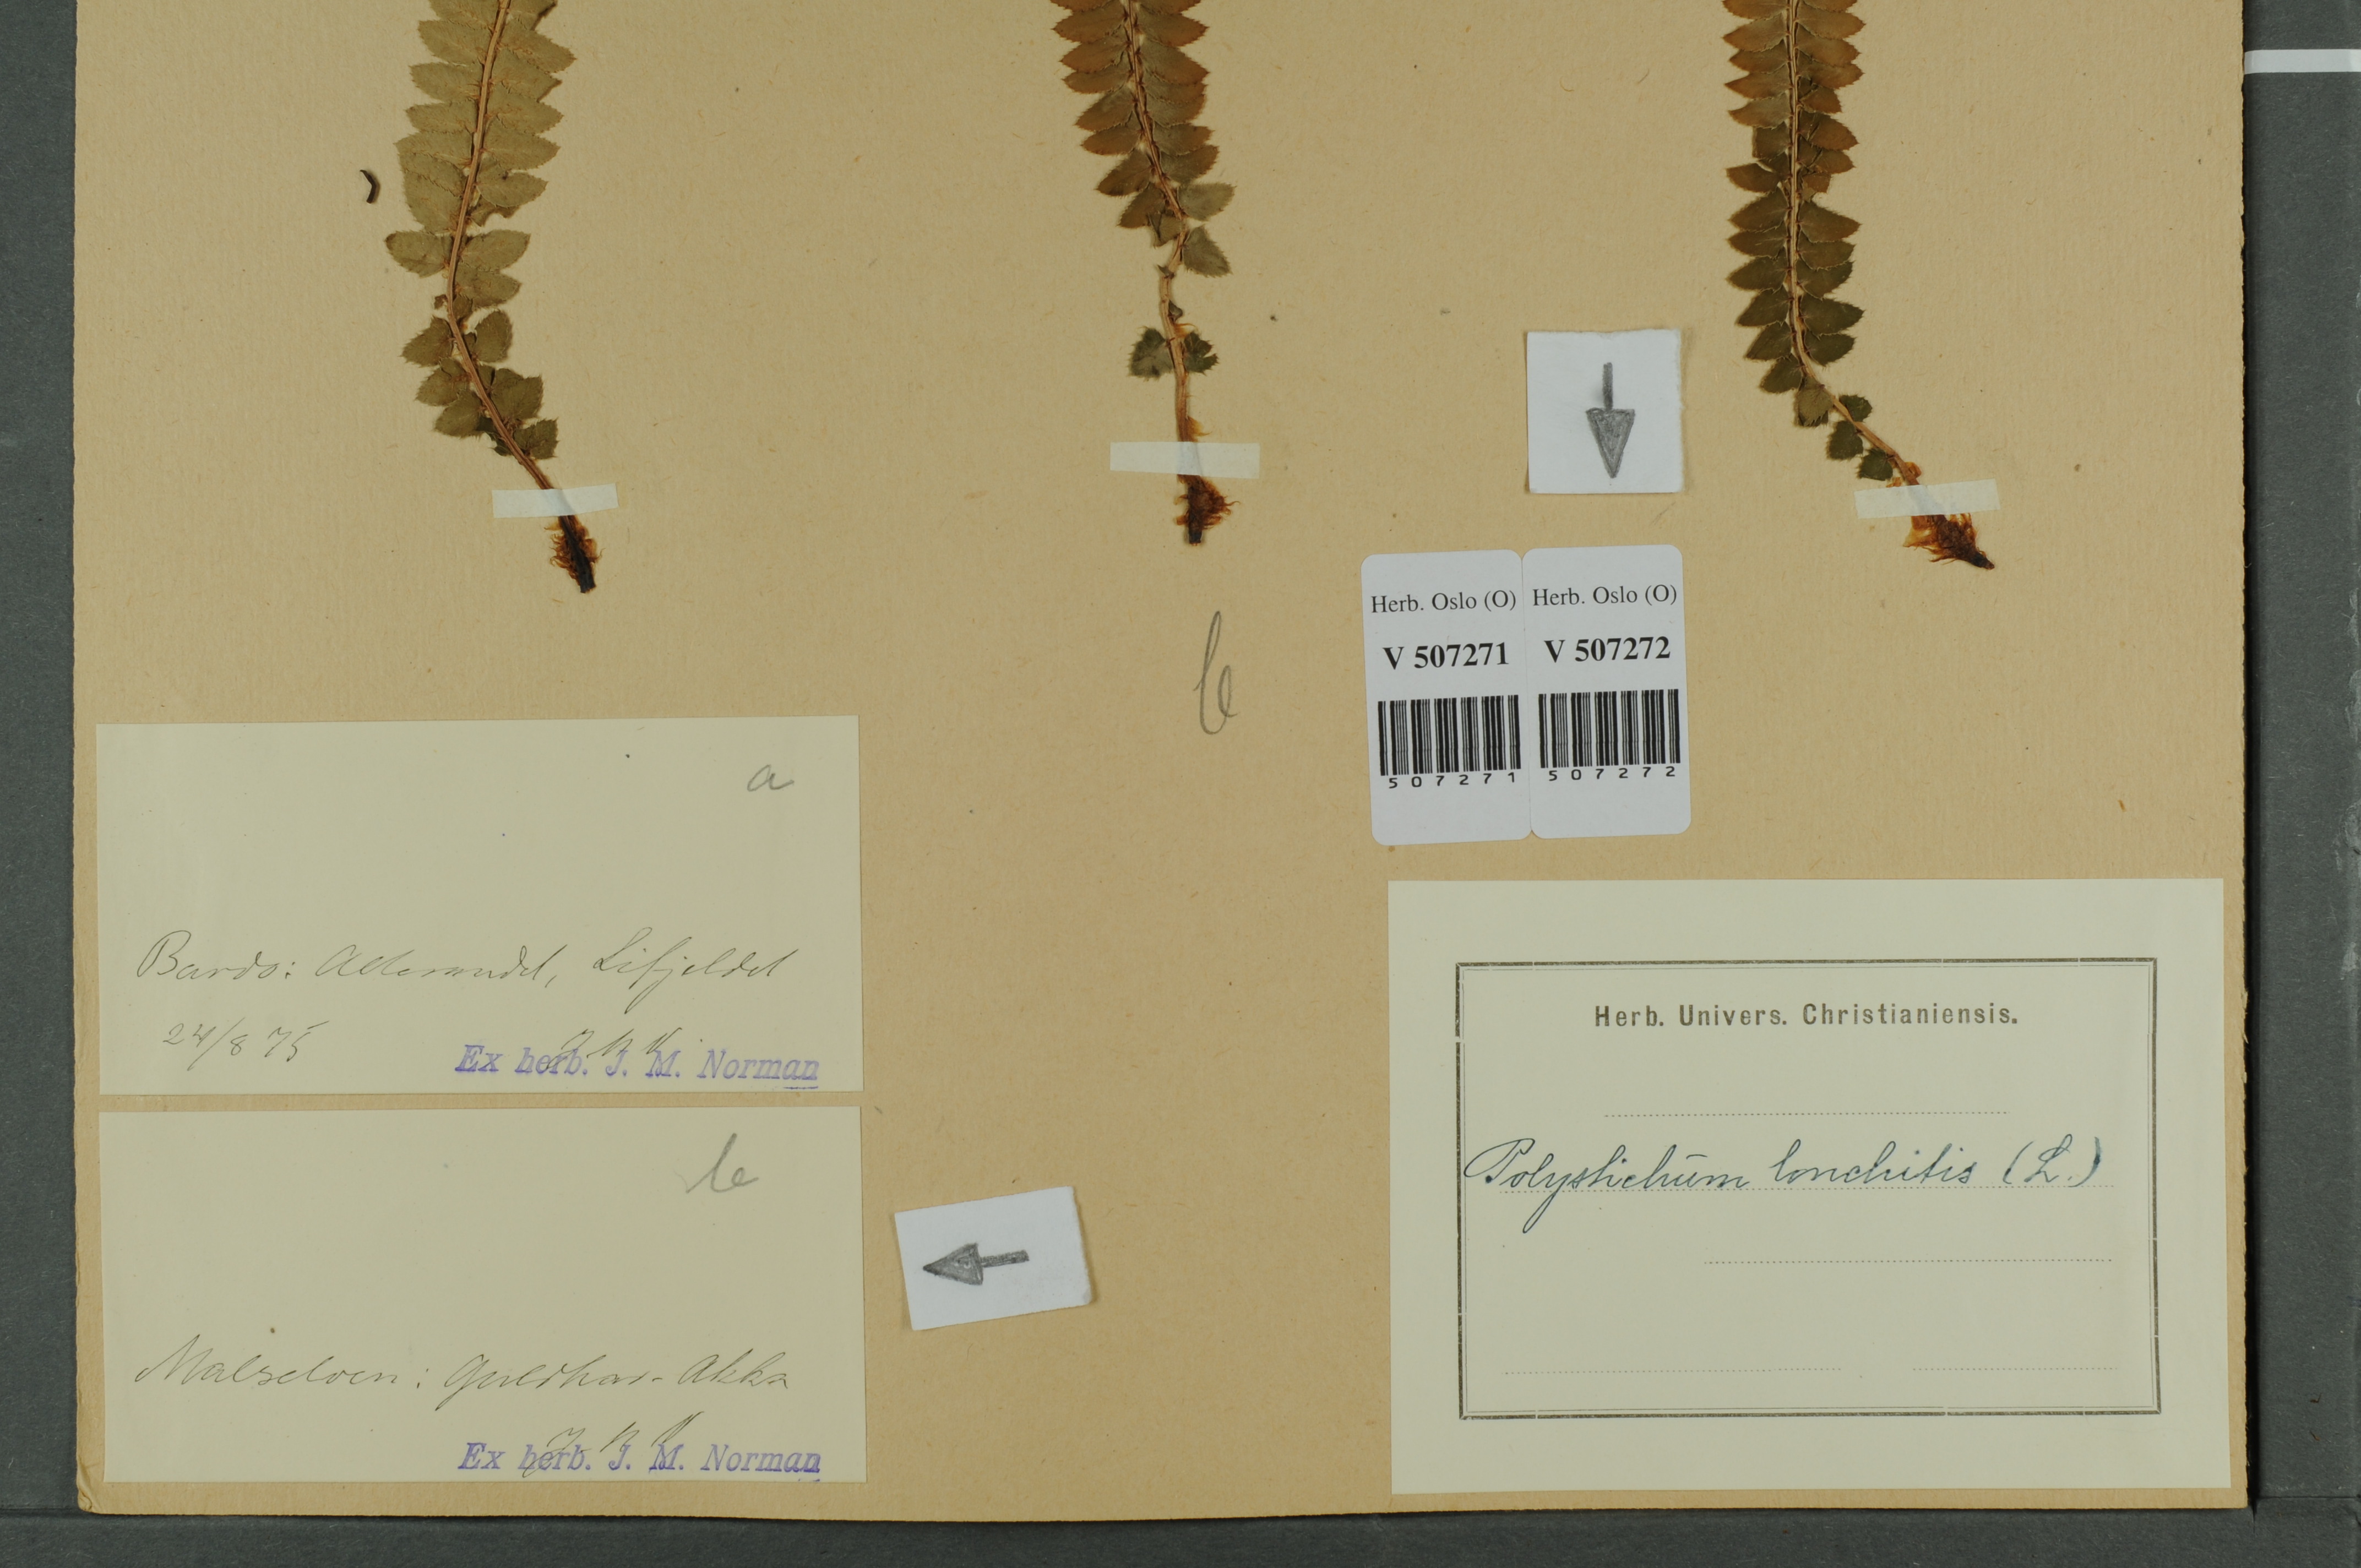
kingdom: Plantae
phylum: Tracheophyta
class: Polypodiopsida
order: Polypodiales
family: Dryopteridaceae
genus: Polystichum
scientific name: Polystichum lonchitis
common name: Holly fern
